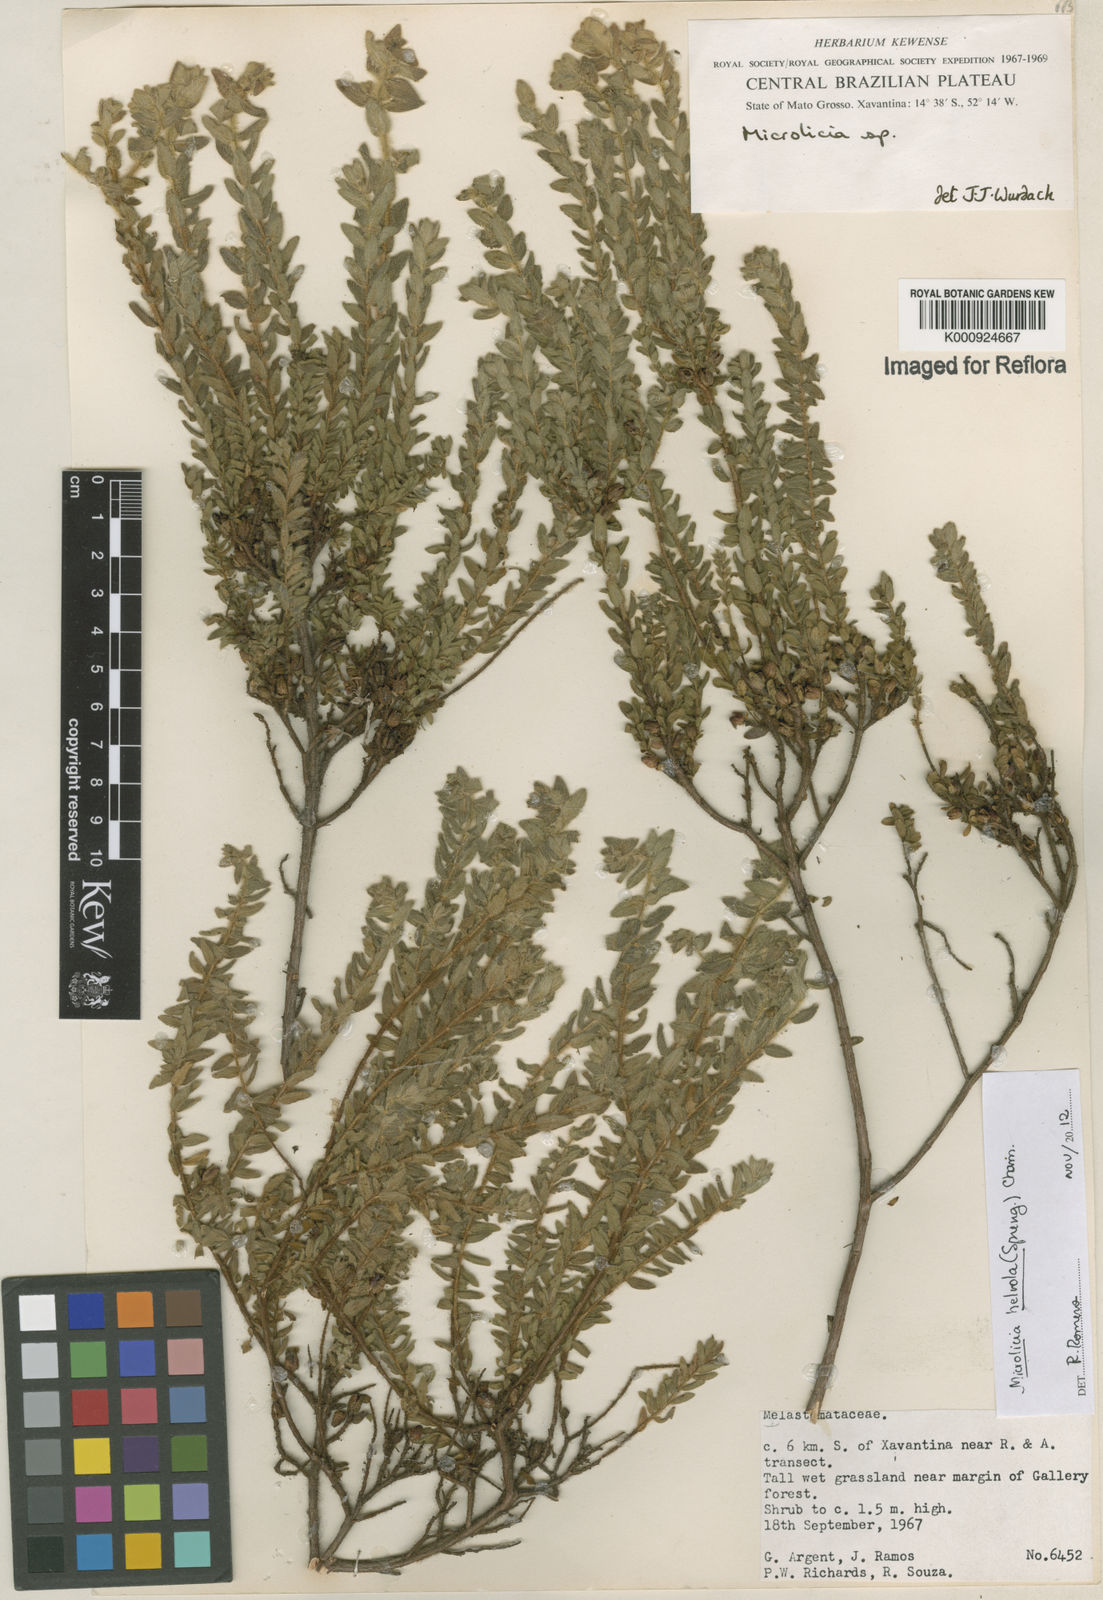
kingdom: Plantae
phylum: Tracheophyta
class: Magnoliopsida
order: Myrtales
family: Melastomataceae
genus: Microlicia
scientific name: Microlicia helvola
